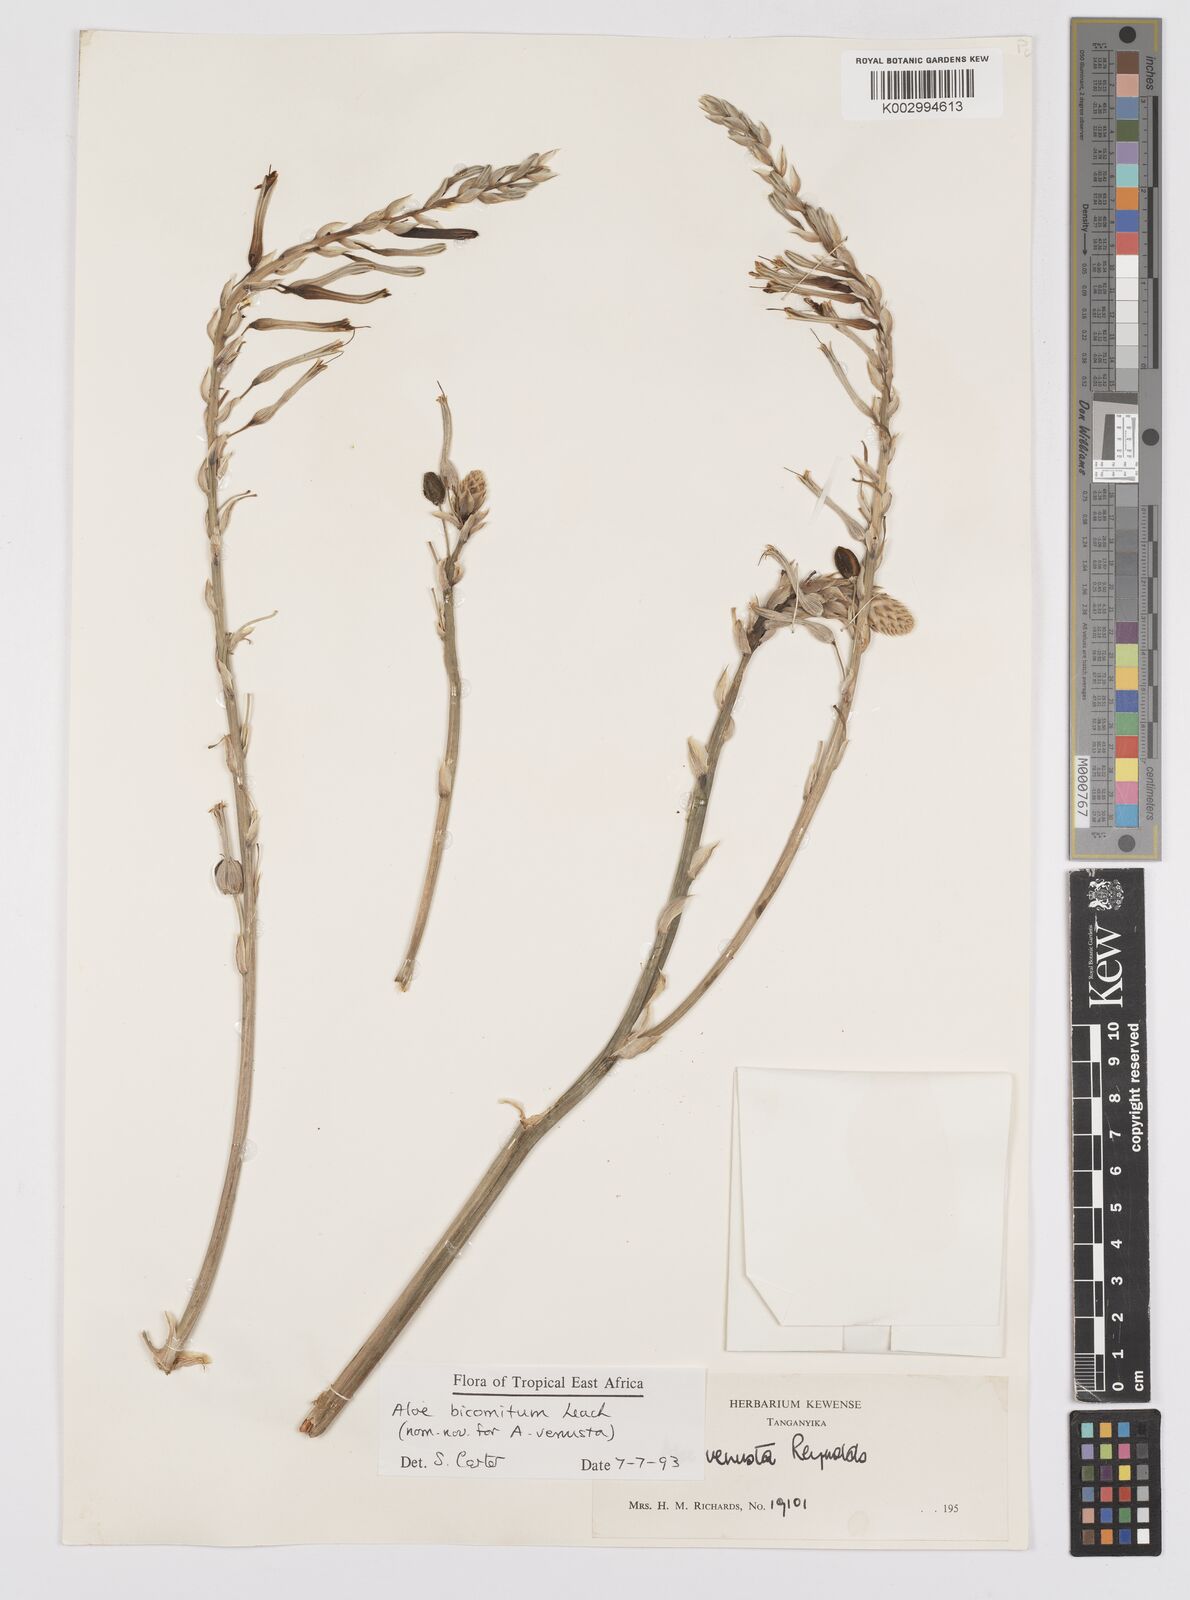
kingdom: Plantae
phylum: Tracheophyta
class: Liliopsida
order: Asparagales
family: Asphodelaceae
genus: Aloe
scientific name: Aloe bicomitum
